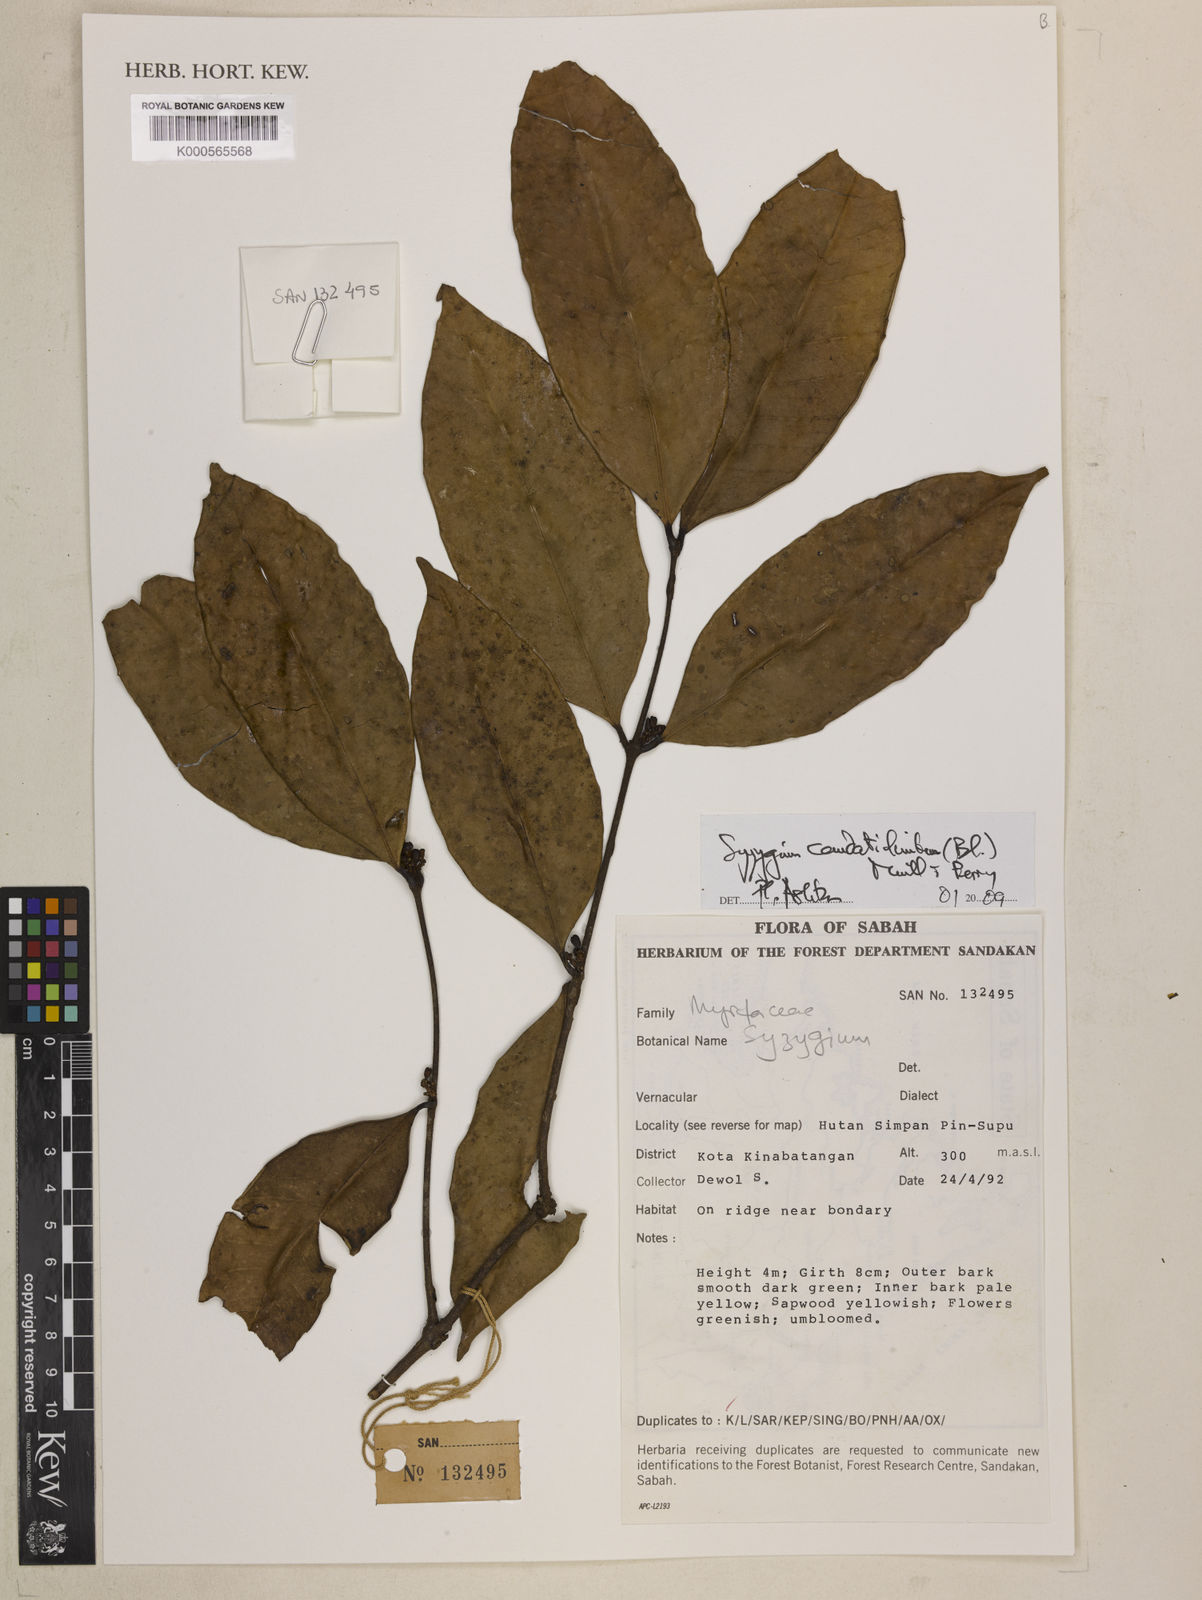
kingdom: Plantae
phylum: Tracheophyta
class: Magnoliopsida
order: Myrtales
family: Myrtaceae
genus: Syzygium
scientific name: Syzygium caudatilimbum
